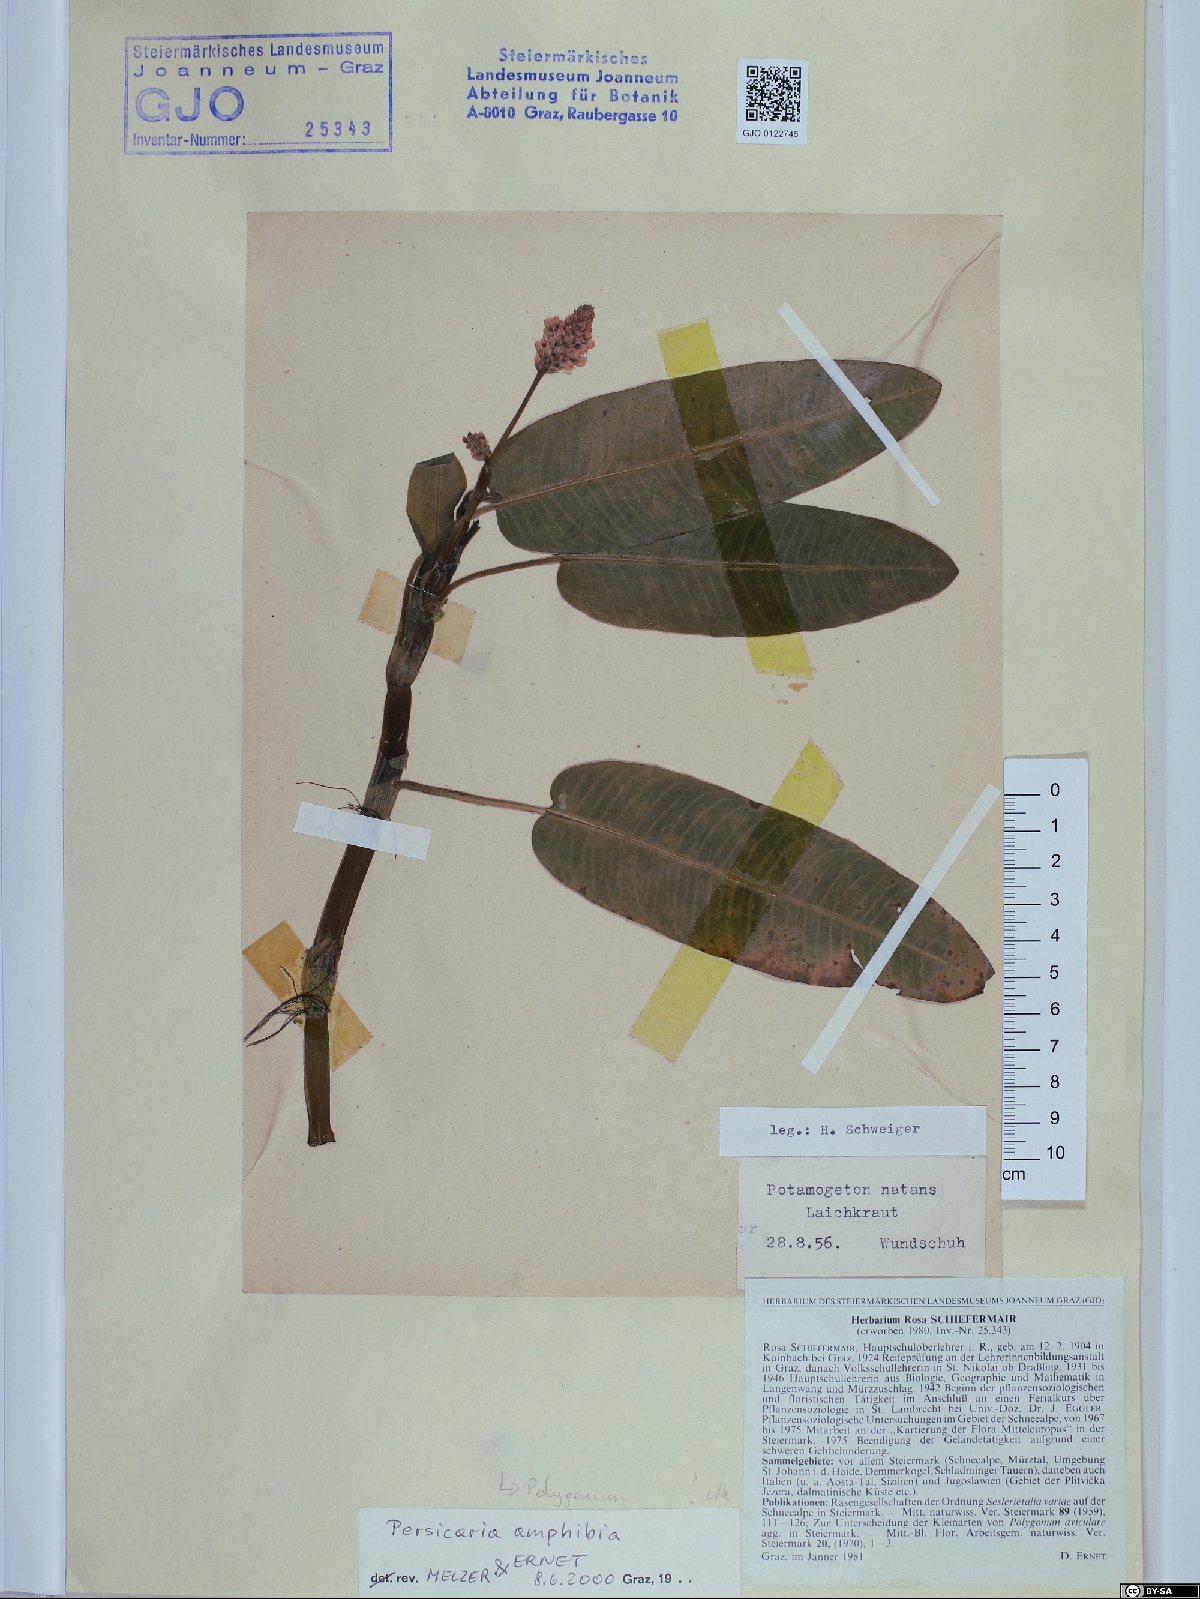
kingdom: Plantae
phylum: Tracheophyta
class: Magnoliopsida
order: Caryophyllales
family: Polygonaceae
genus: Persicaria
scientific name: Persicaria amphibia
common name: Amphibious bistort
